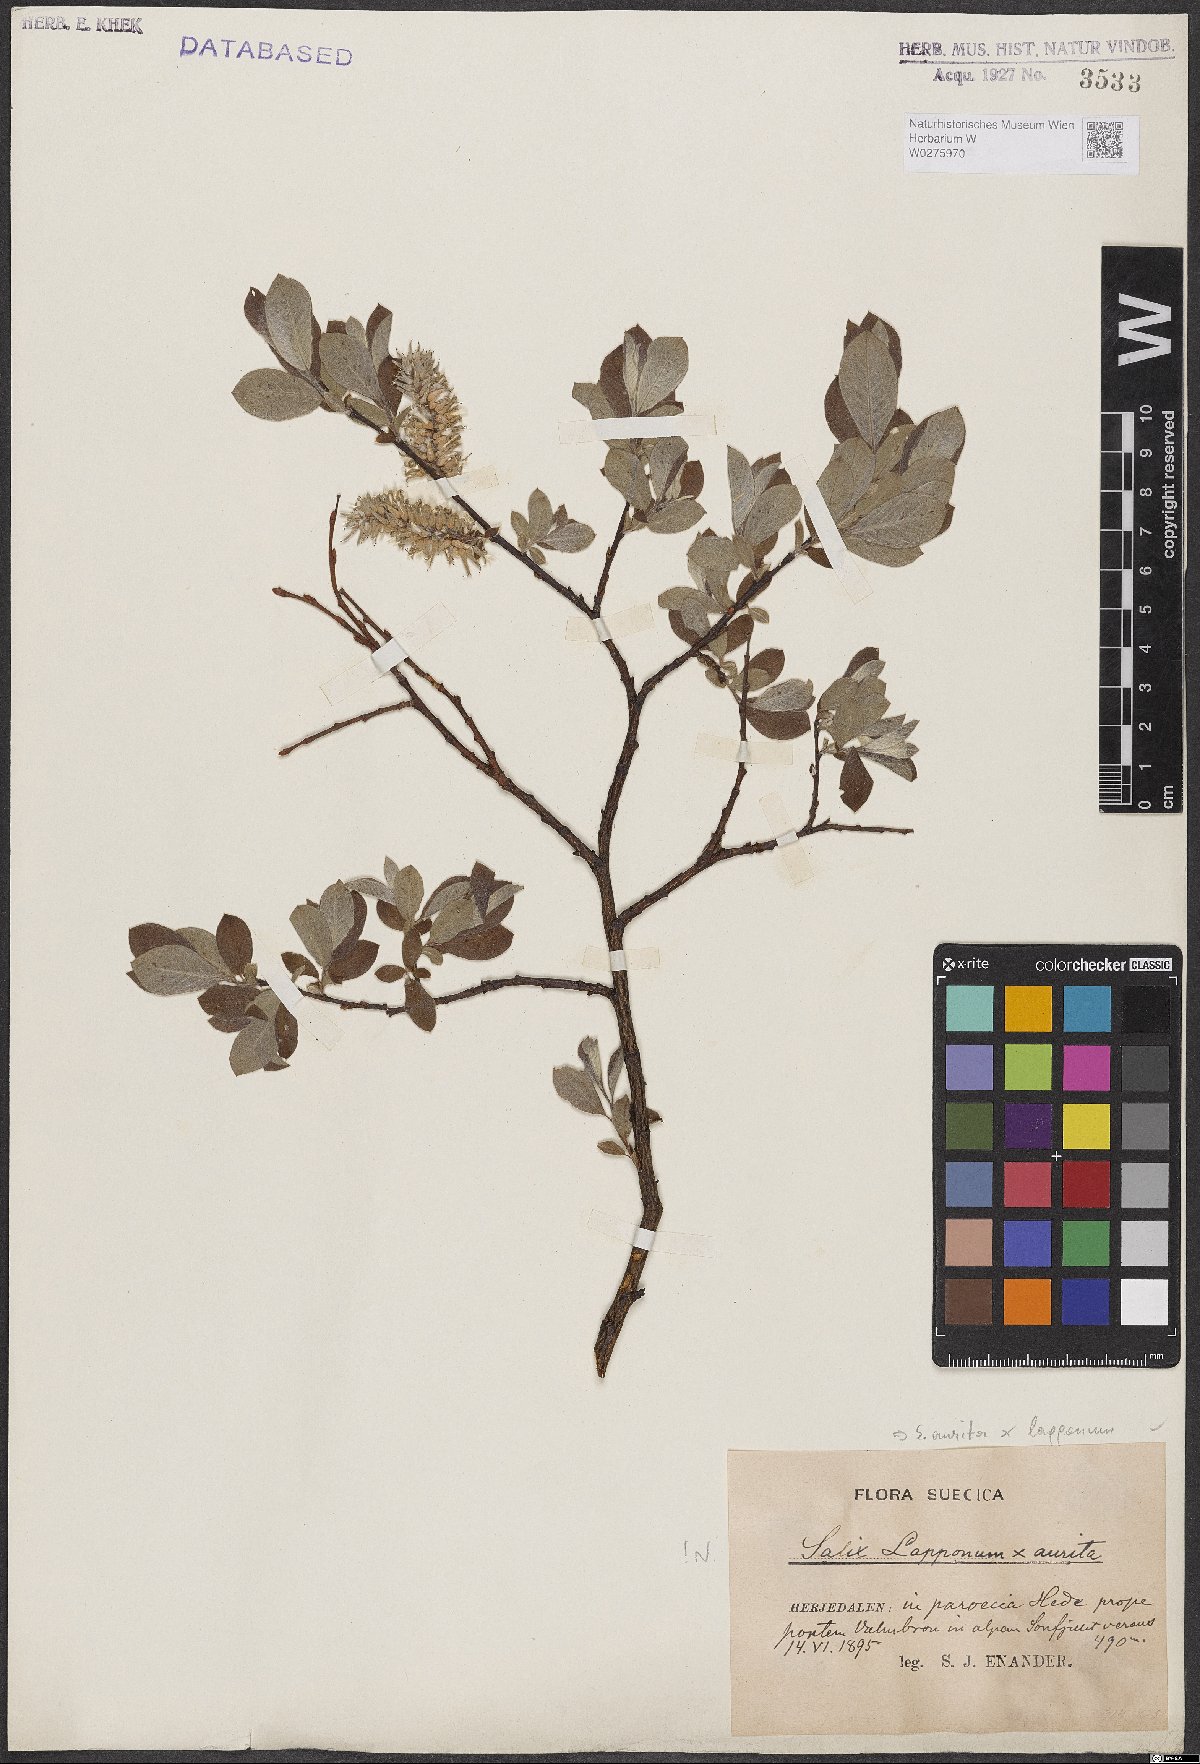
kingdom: Plantae
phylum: Tracheophyta
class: Magnoliopsida
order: Malpighiales
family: Salicaceae
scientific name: Salicaceae
